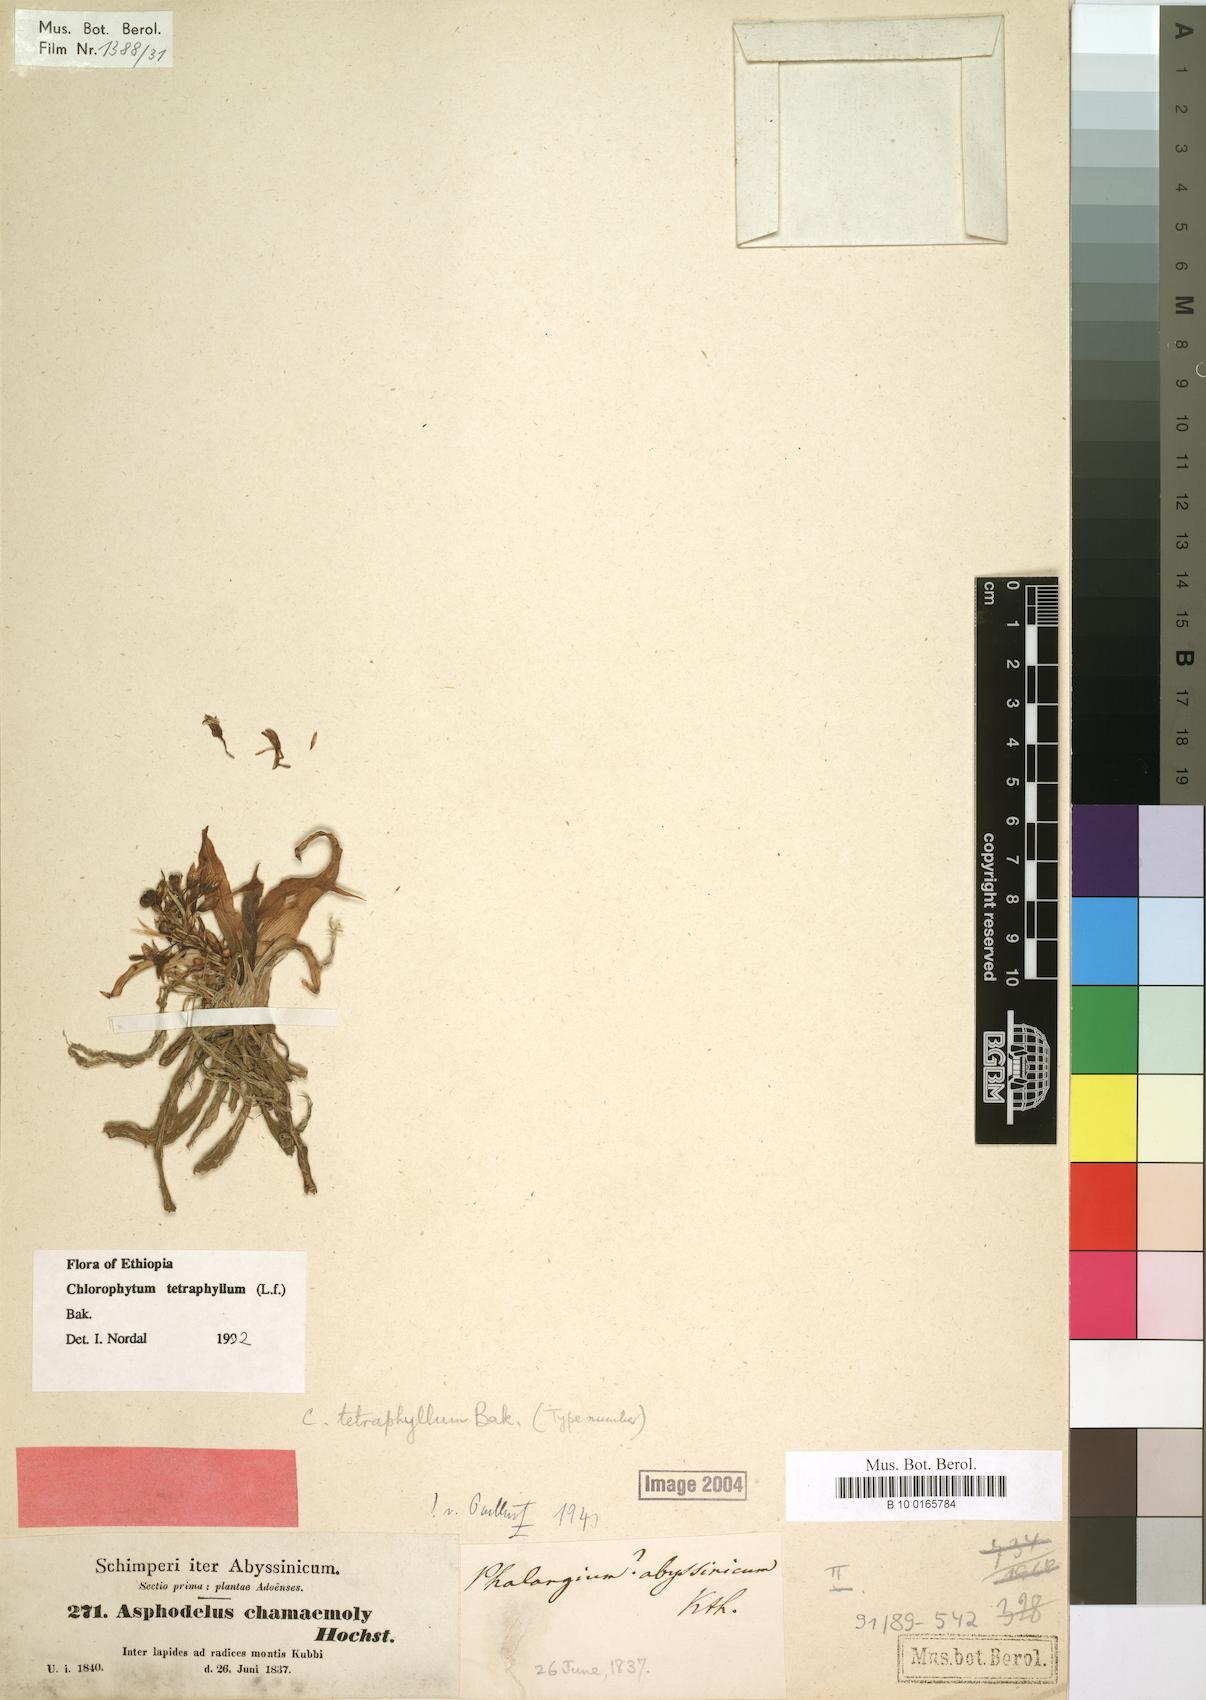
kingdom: Plantae
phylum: Tracheophyta
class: Liliopsida
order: Asparagales
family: Asparagaceae
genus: Chlorophytum
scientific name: Chlorophytum tetraphyllum
